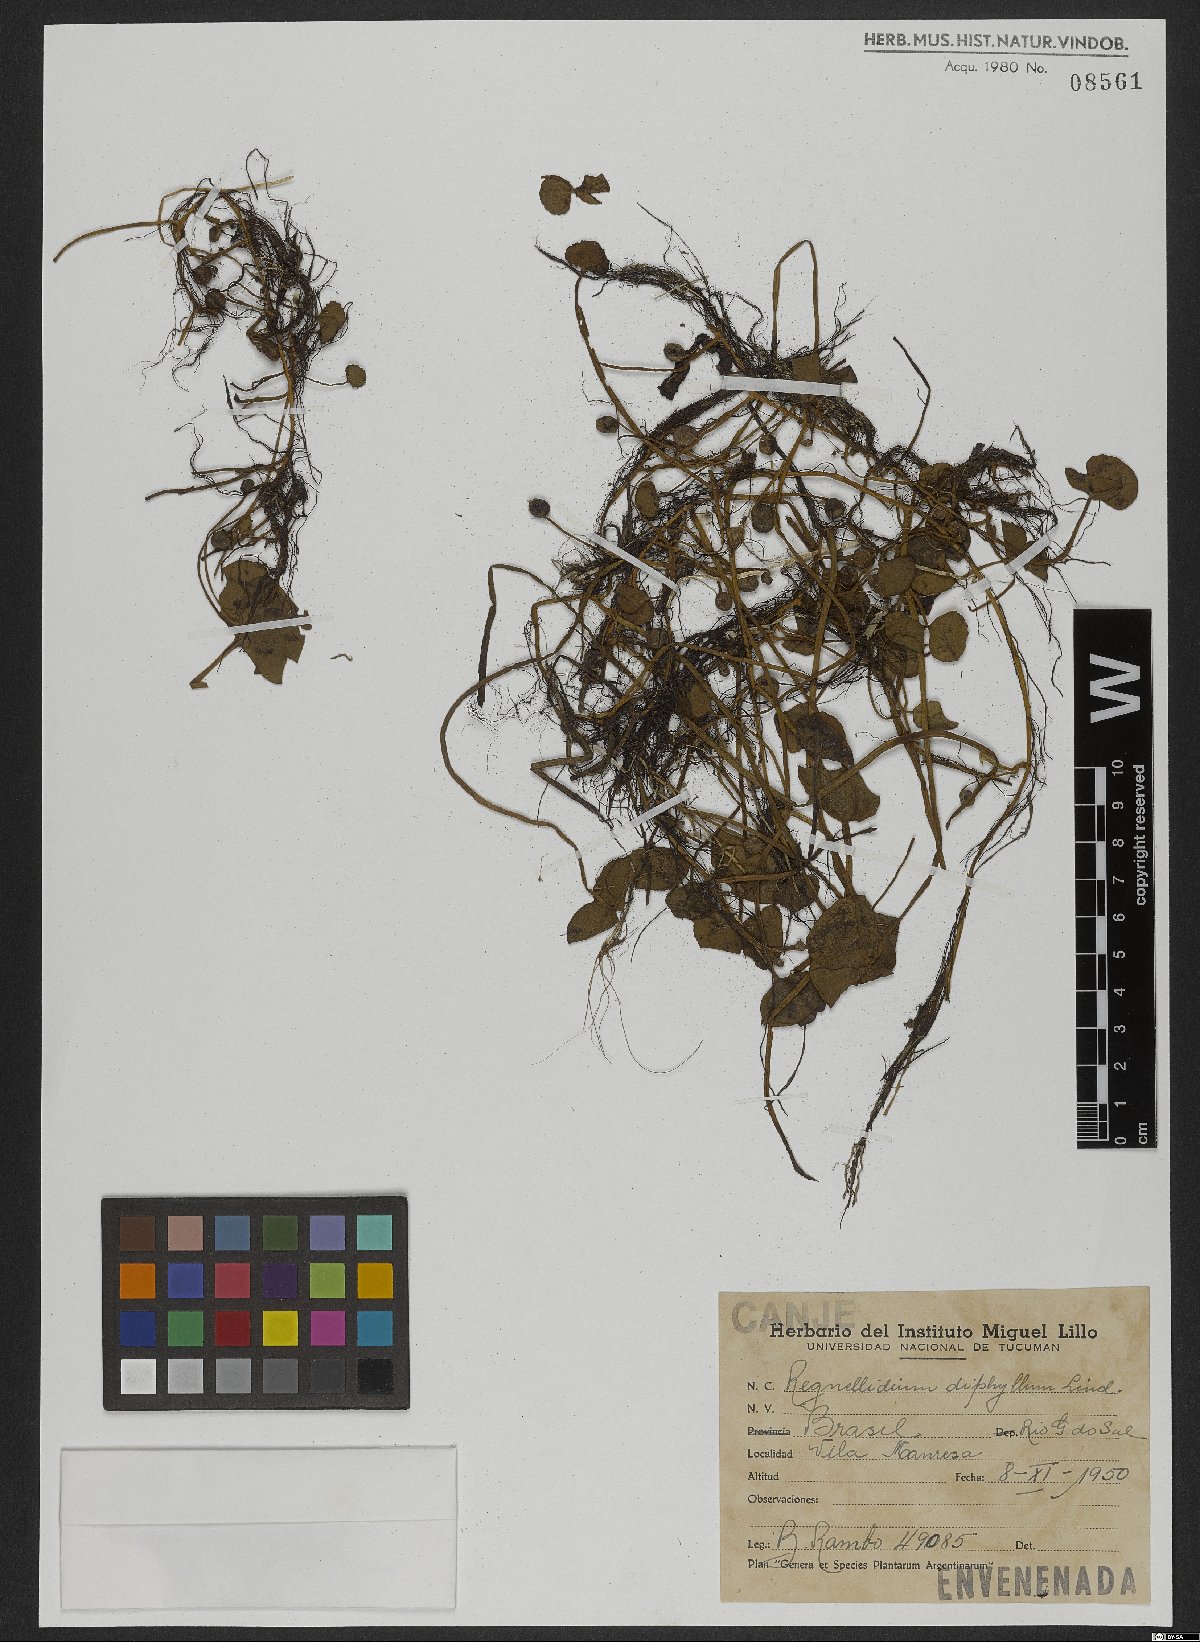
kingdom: Plantae
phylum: Tracheophyta
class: Polypodiopsida
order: Salviniales
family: Marsileaceae
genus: Regnellidium
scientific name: Regnellidium diphyllum
